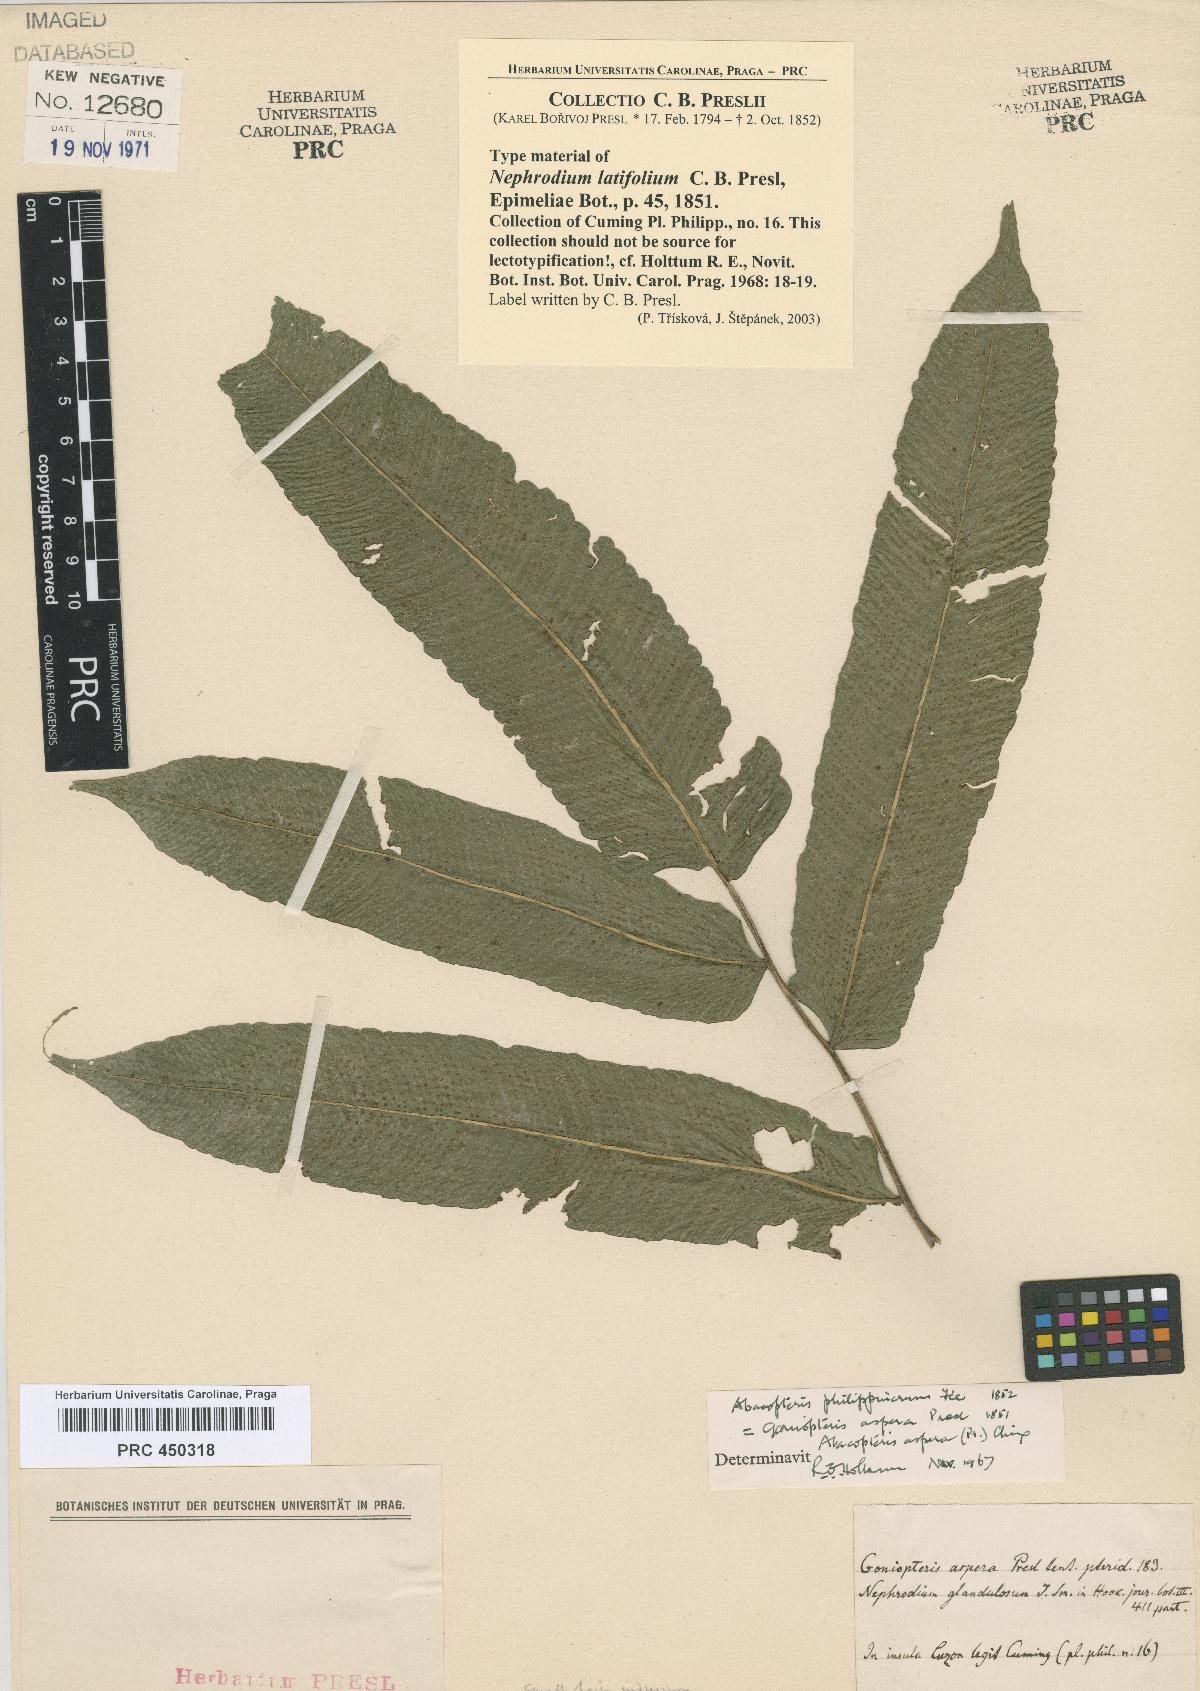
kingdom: Plantae
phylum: Tracheophyta
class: Polypodiopsida
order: Polypodiales
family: Thelypteridaceae
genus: Pronephrium
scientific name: Pronephrium menisciicarpon
